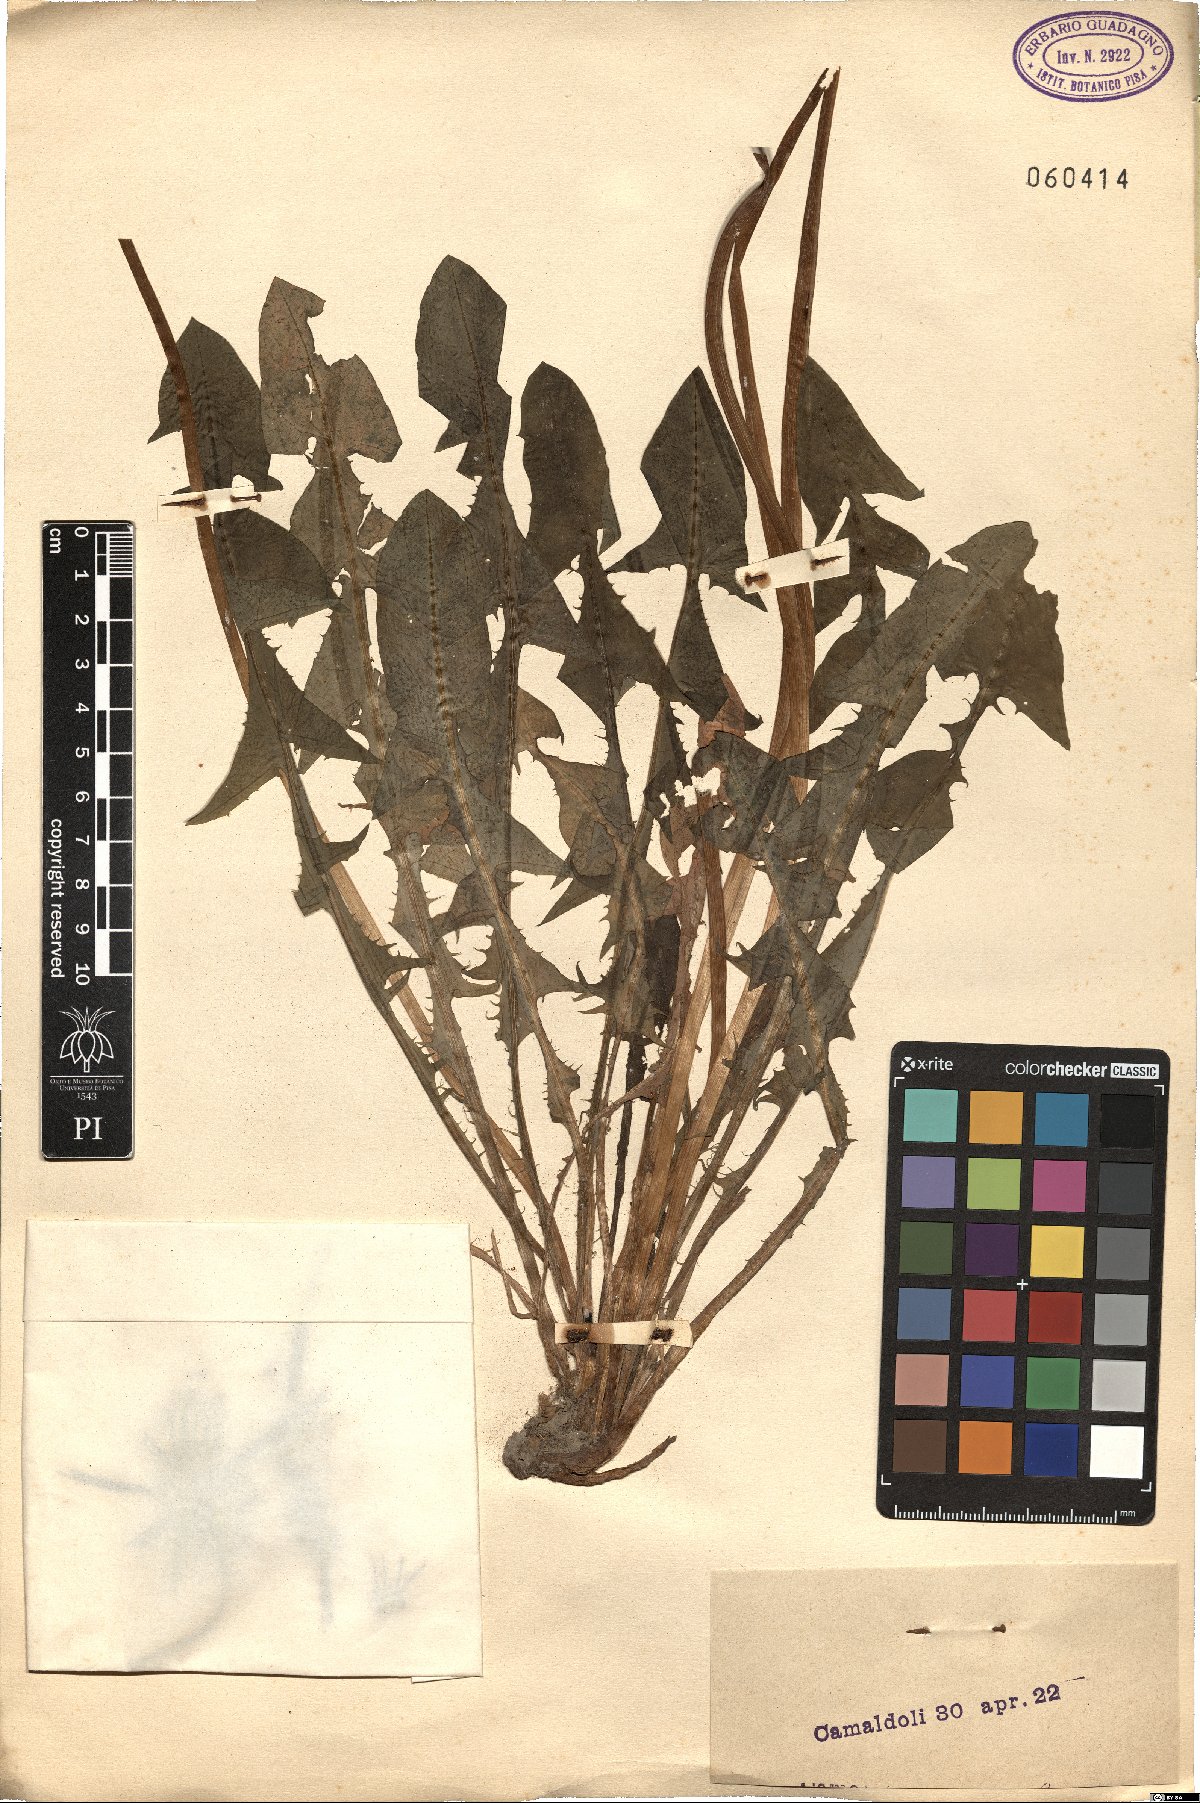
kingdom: Plantae
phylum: Tracheophyta
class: Magnoliopsida
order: Asterales
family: Asteraceae
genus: Taraxacum
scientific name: Taraxacum
